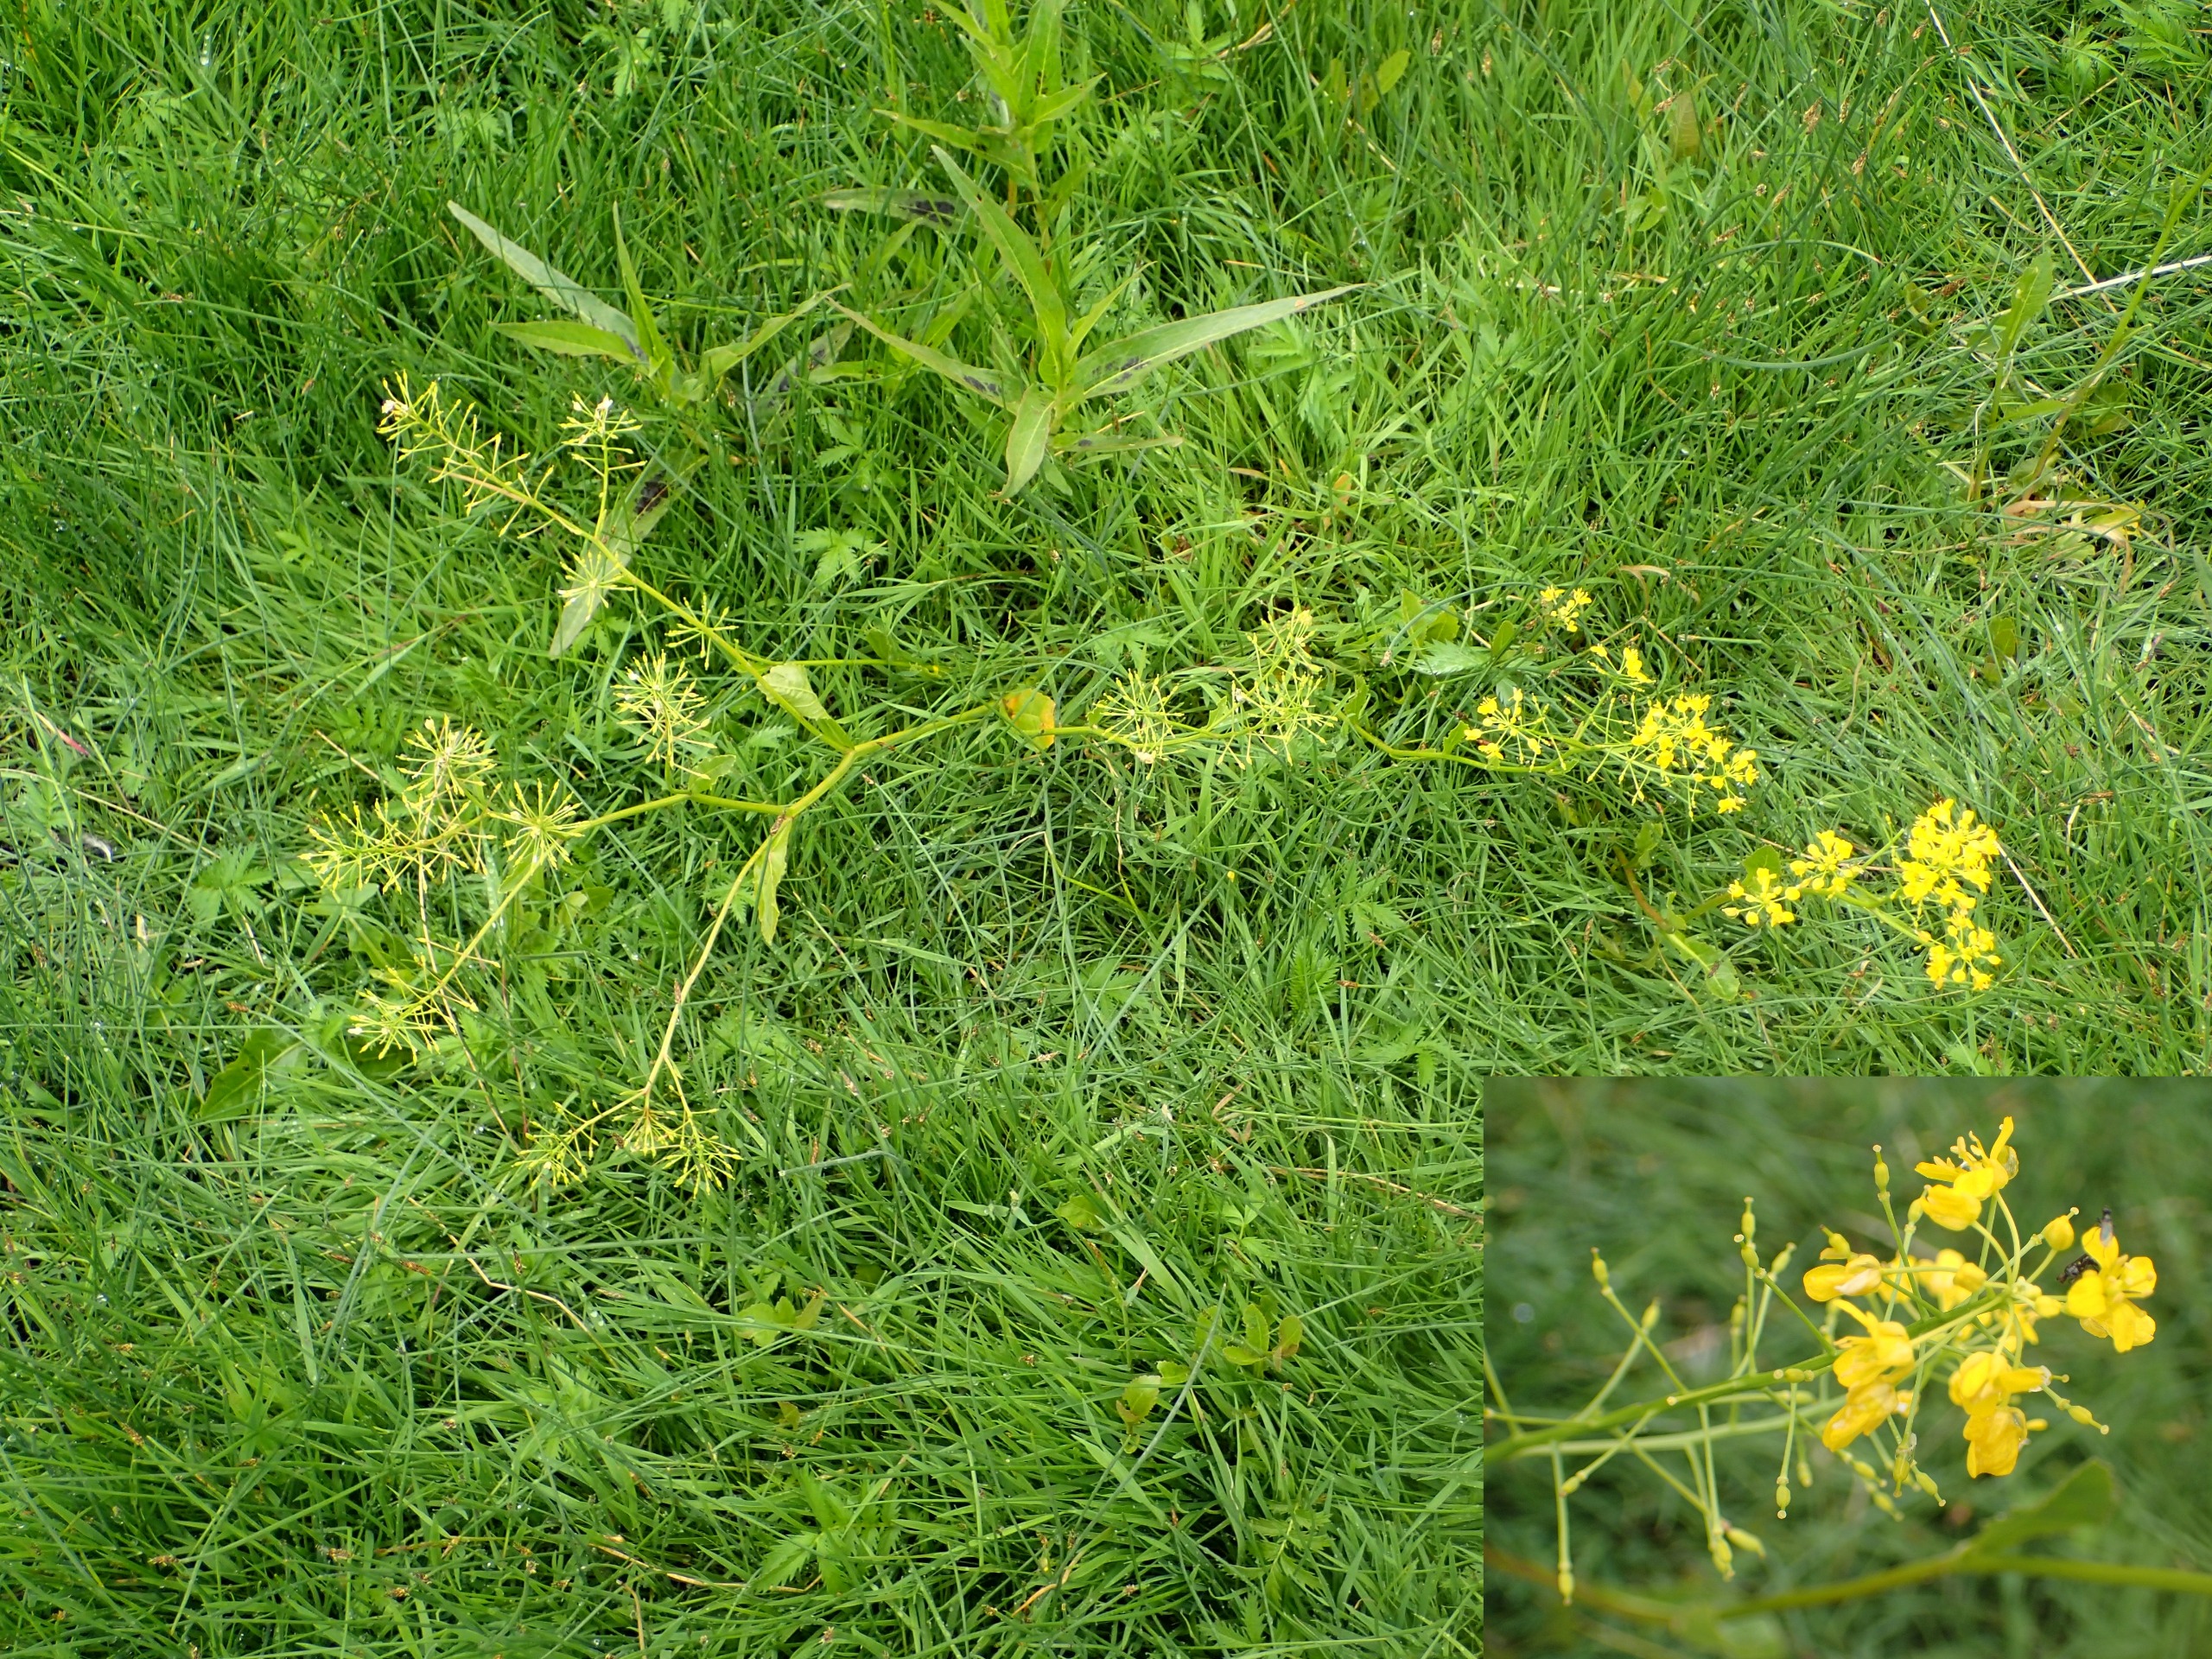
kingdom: Plantae
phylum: Tracheophyta
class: Magnoliopsida
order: Brassicales
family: Brassicaceae
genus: Rorippa
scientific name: Rorippa amphibia
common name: Vandpeberrod
